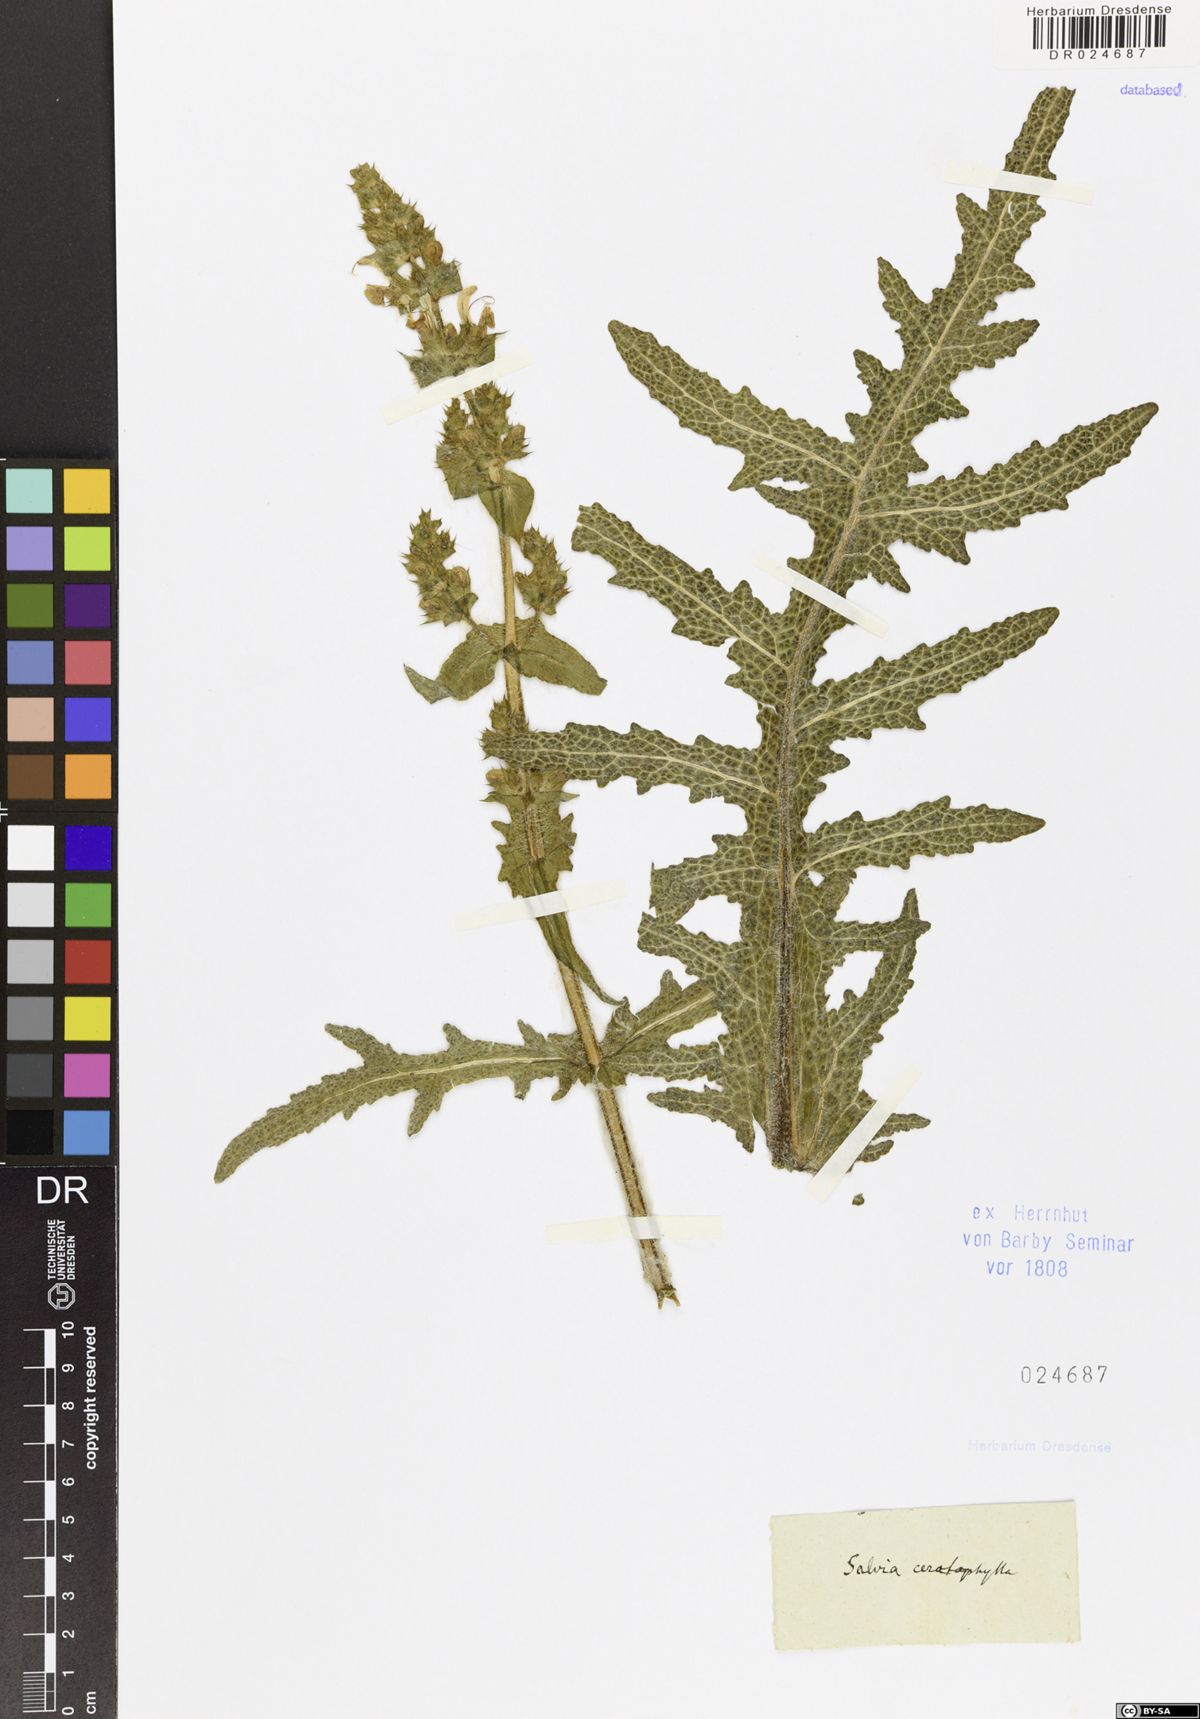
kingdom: Plantae
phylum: Tracheophyta
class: Magnoliopsida
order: Lamiales
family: Lamiaceae
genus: Salvia
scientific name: Salvia ceratophylla
